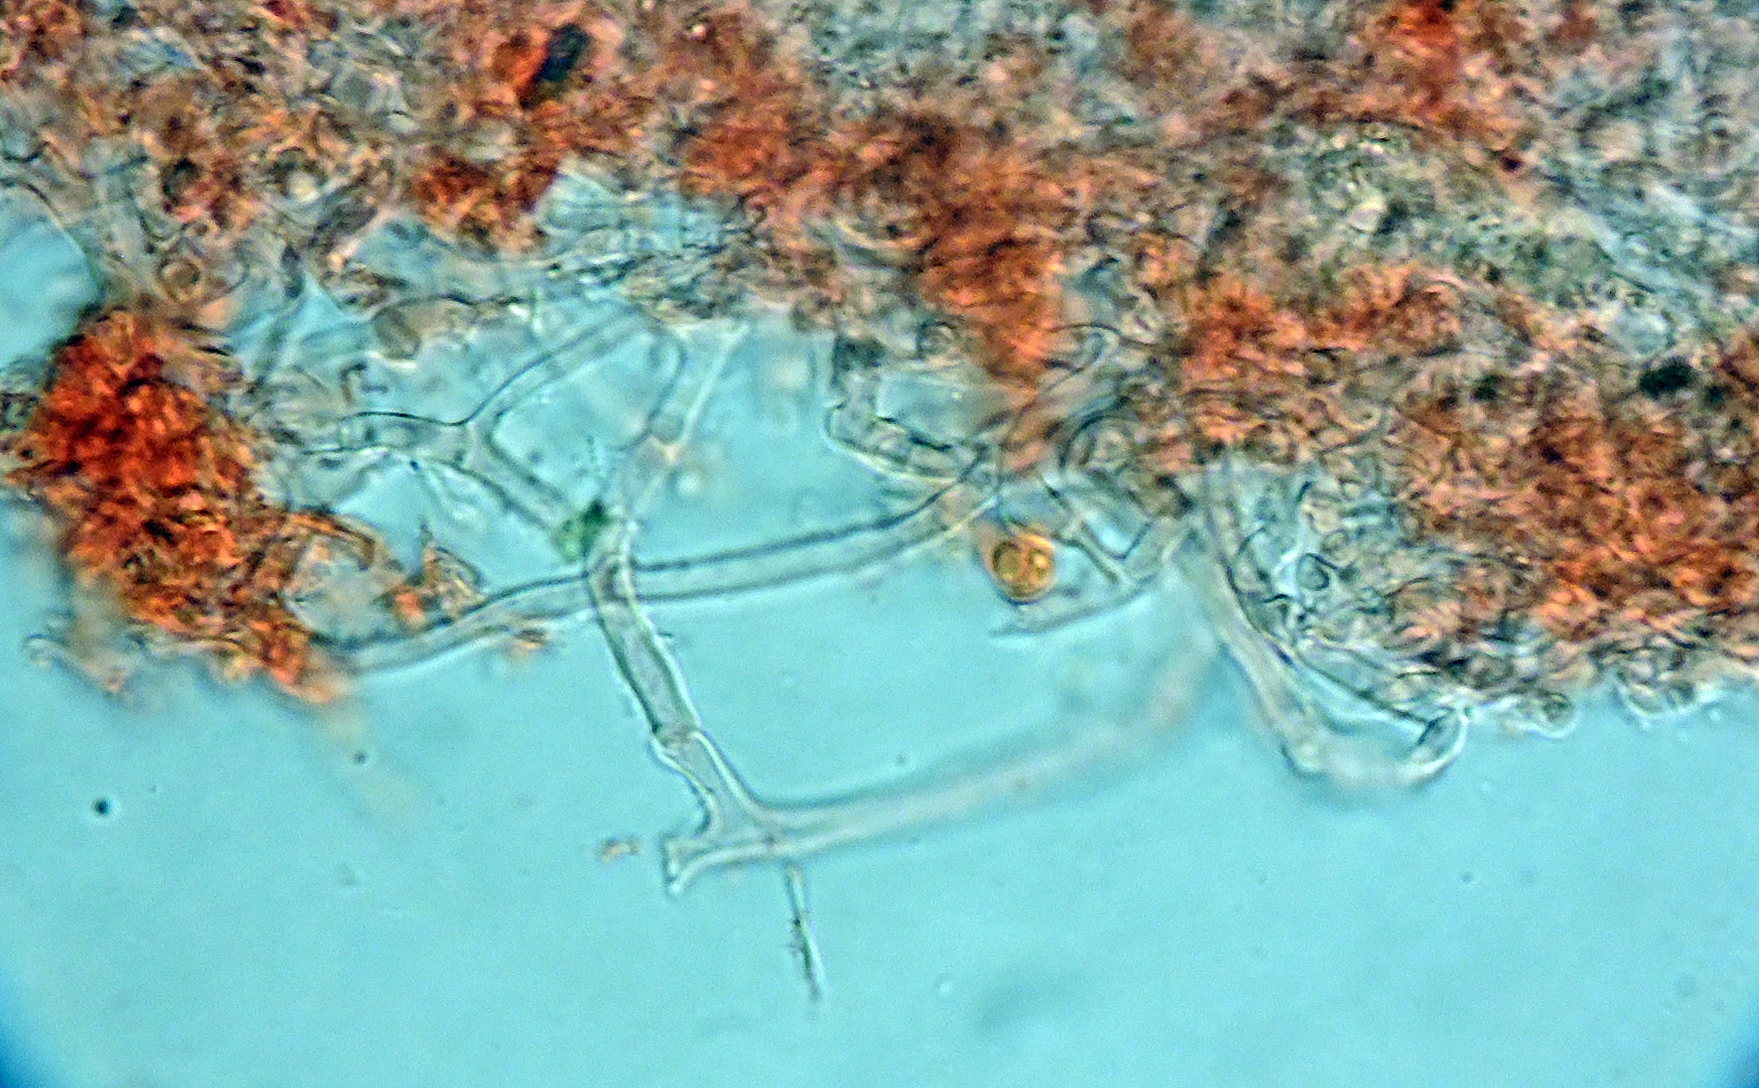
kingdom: Fungi
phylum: Basidiomycota
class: Agaricomycetes
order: Atheliales
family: Atheliaceae
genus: Athelopsis
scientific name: Athelopsis lembospora
